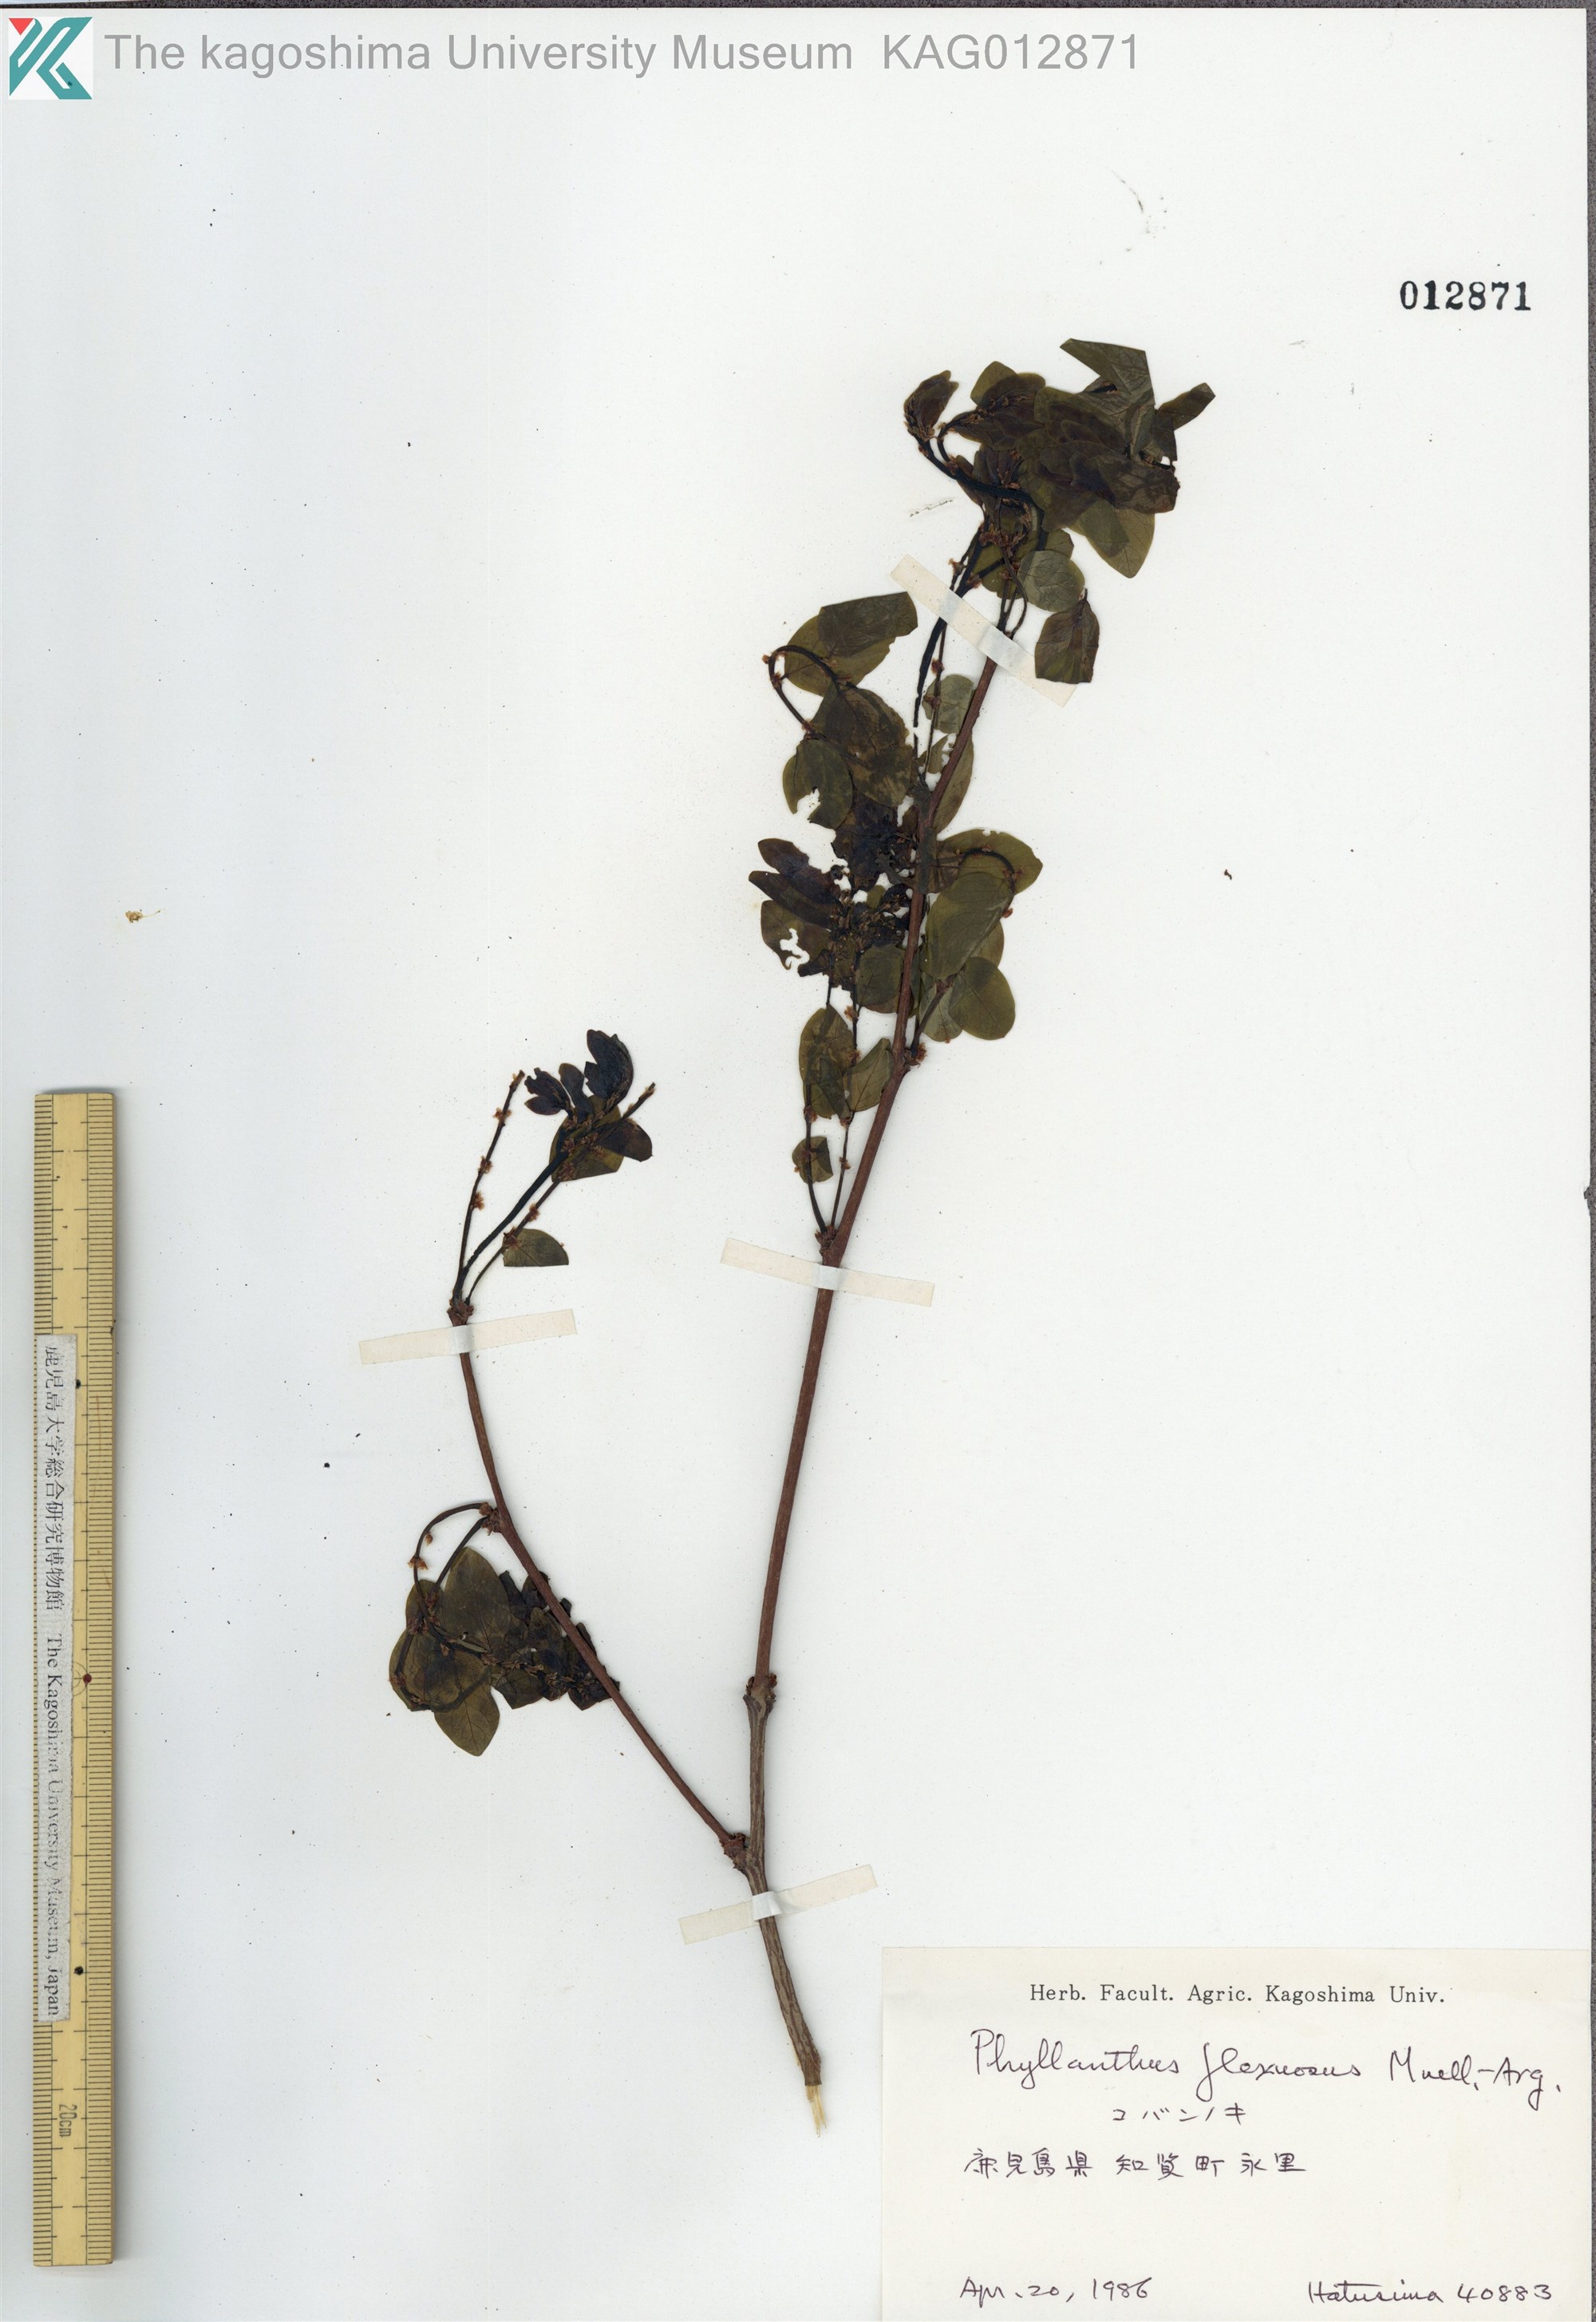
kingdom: Plantae
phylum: Tracheophyta
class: Magnoliopsida
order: Malpighiales
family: Phyllanthaceae
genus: Phyllanthus
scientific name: Phyllanthus flexuosus
